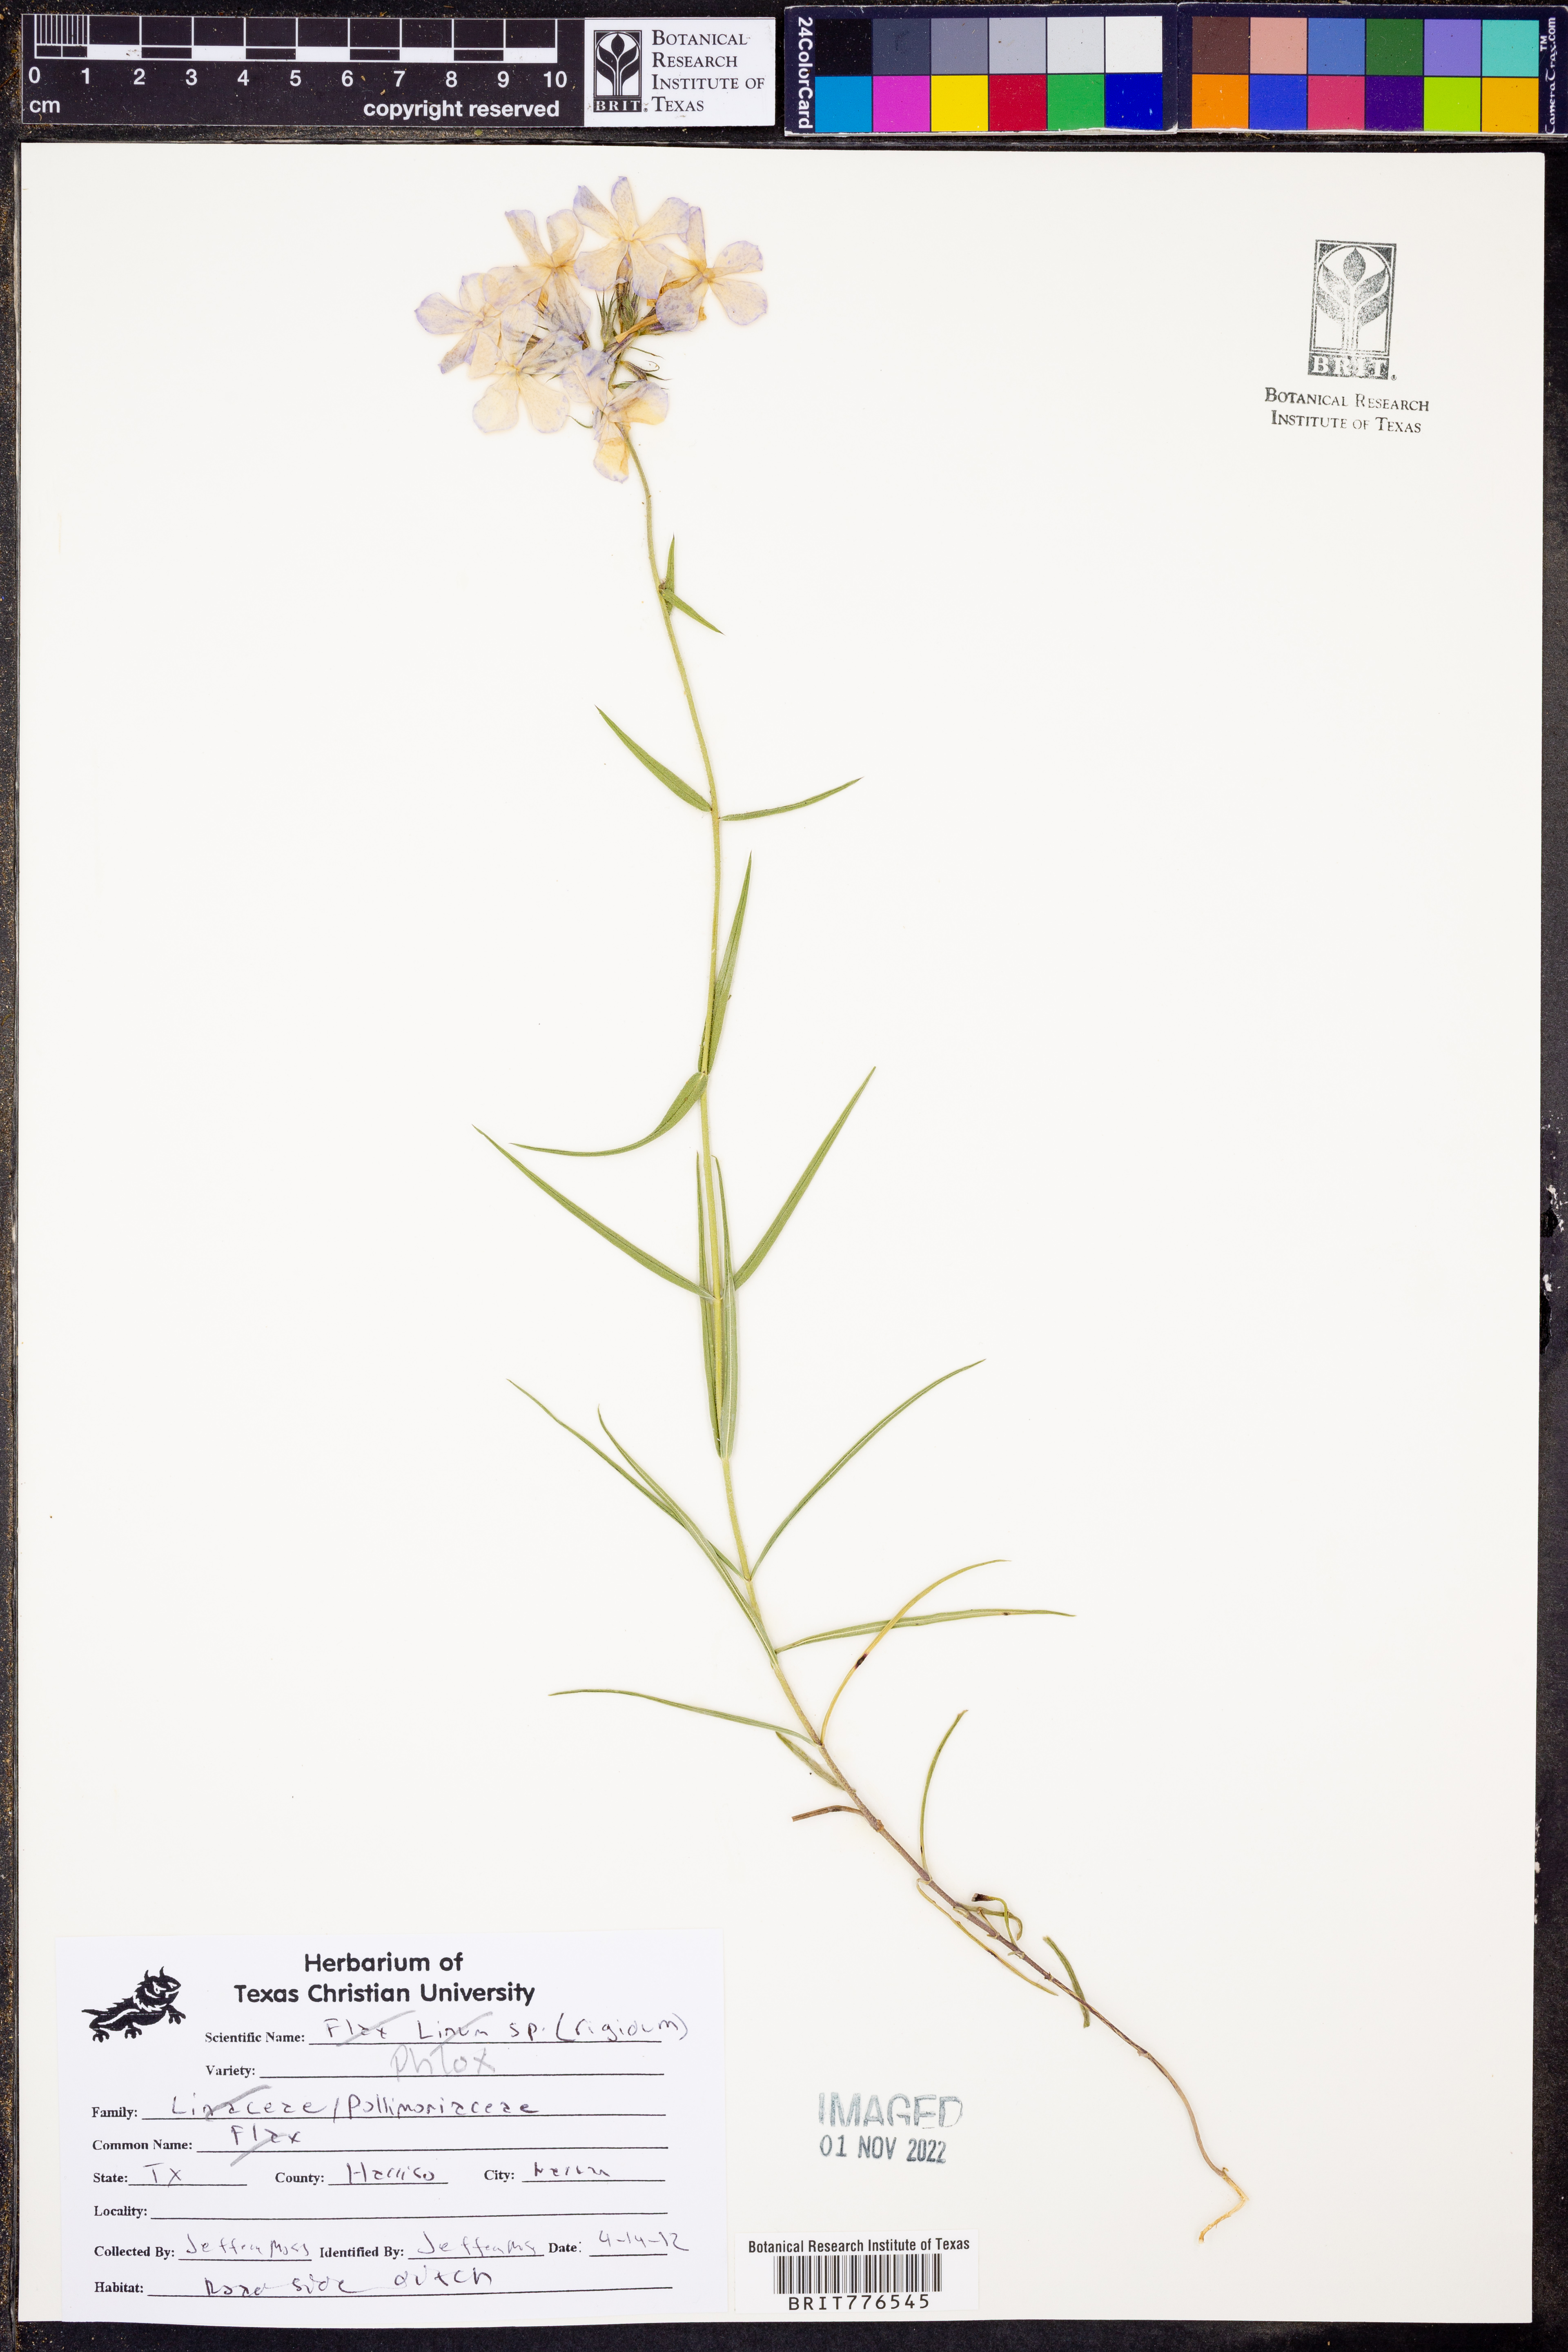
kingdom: Plantae
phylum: Tracheophyta
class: Magnoliopsida
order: Ericales
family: Polemoniaceae
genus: Phlox
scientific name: Phlox
